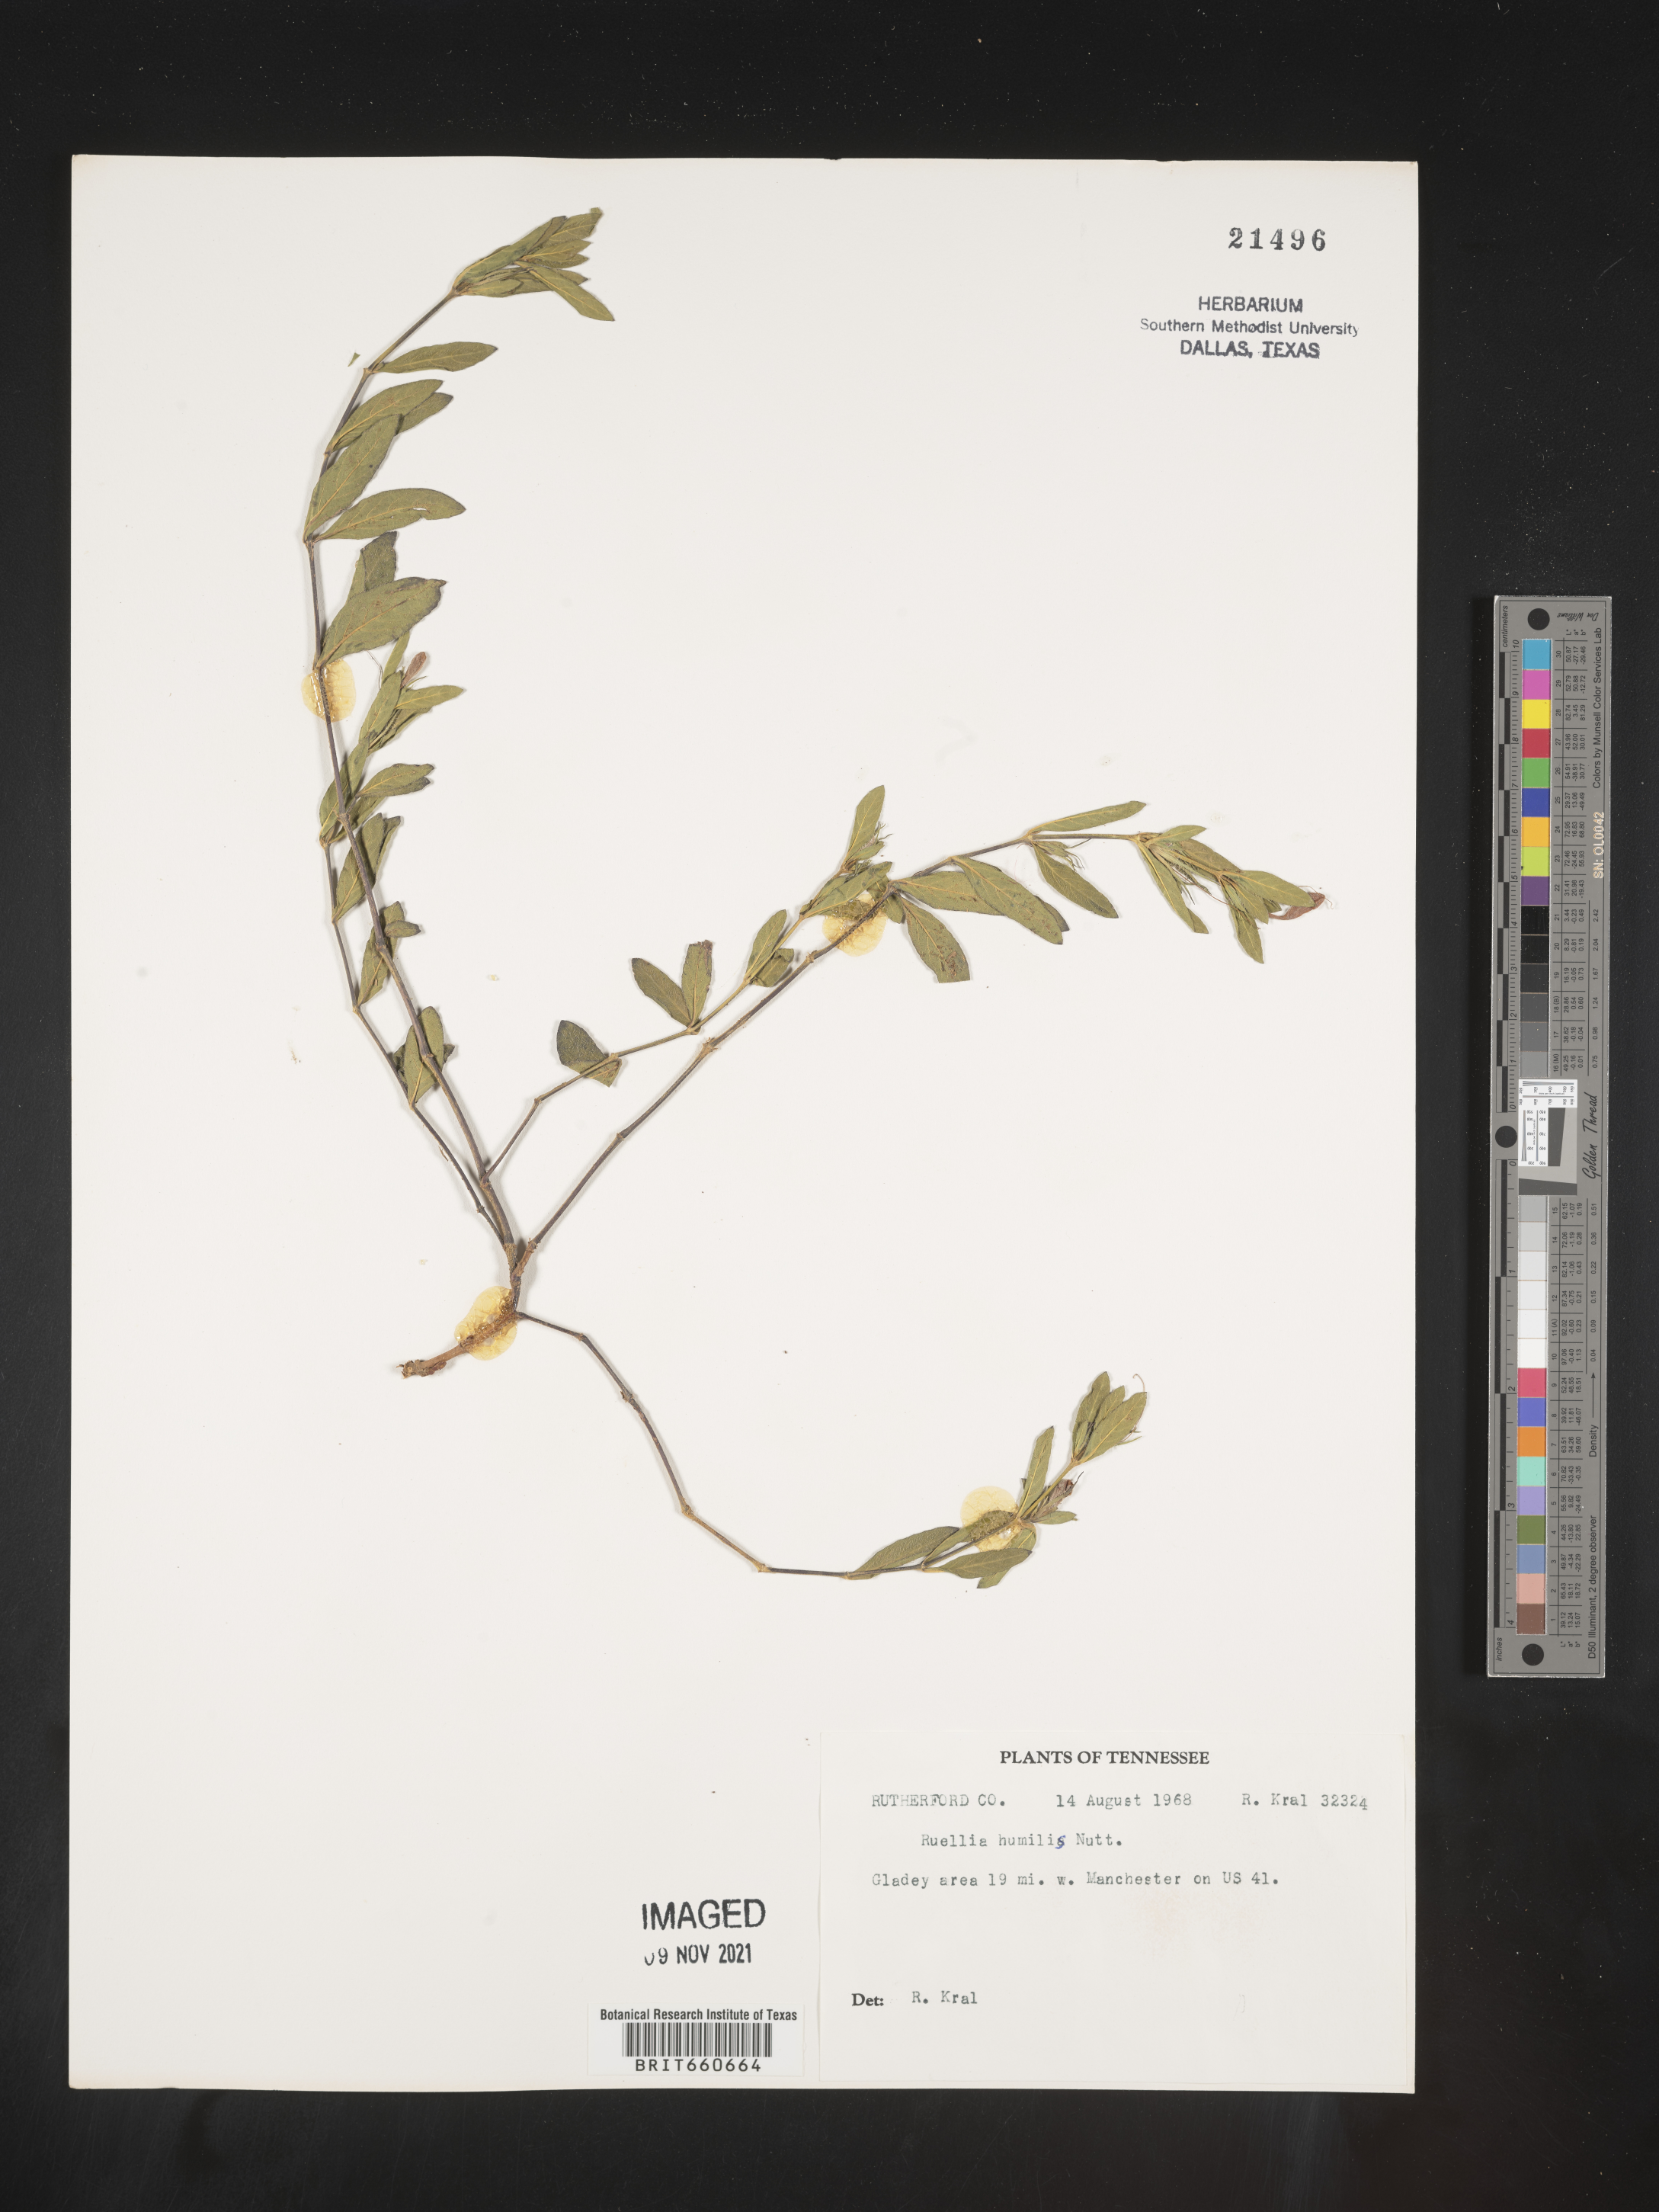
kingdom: Plantae
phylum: Tracheophyta
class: Magnoliopsida
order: Lamiales
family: Acanthaceae
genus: Ruellia
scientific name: Ruellia humilis
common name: Fringe-leaf ruellia
